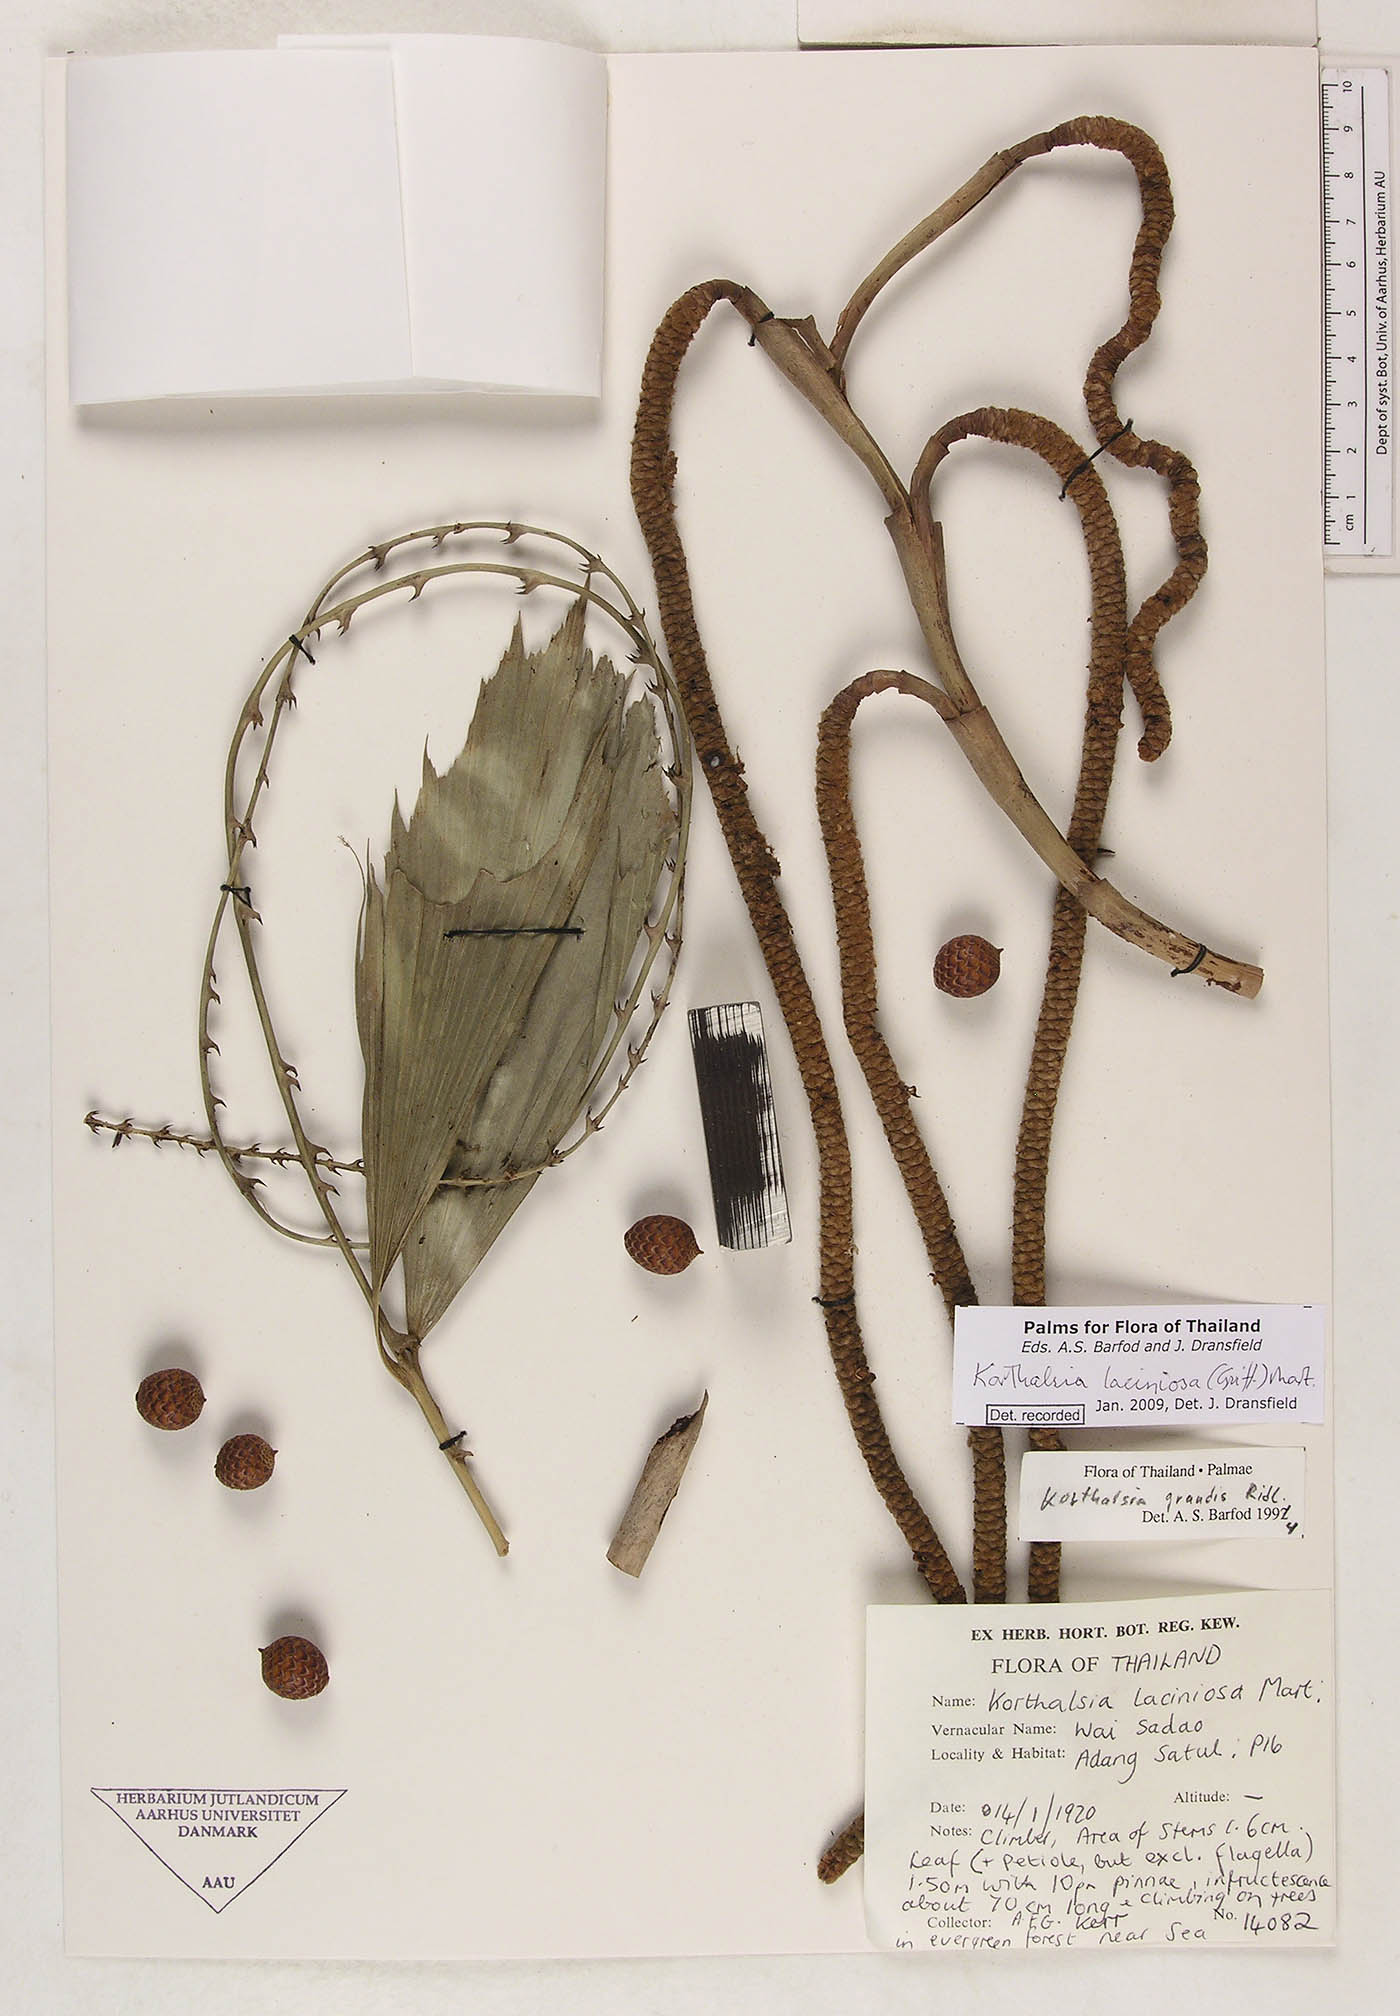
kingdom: Plantae
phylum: Tracheophyta
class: Liliopsida
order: Arecales
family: Arecaceae
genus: Korthalsia
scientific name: Korthalsia laciniosa
